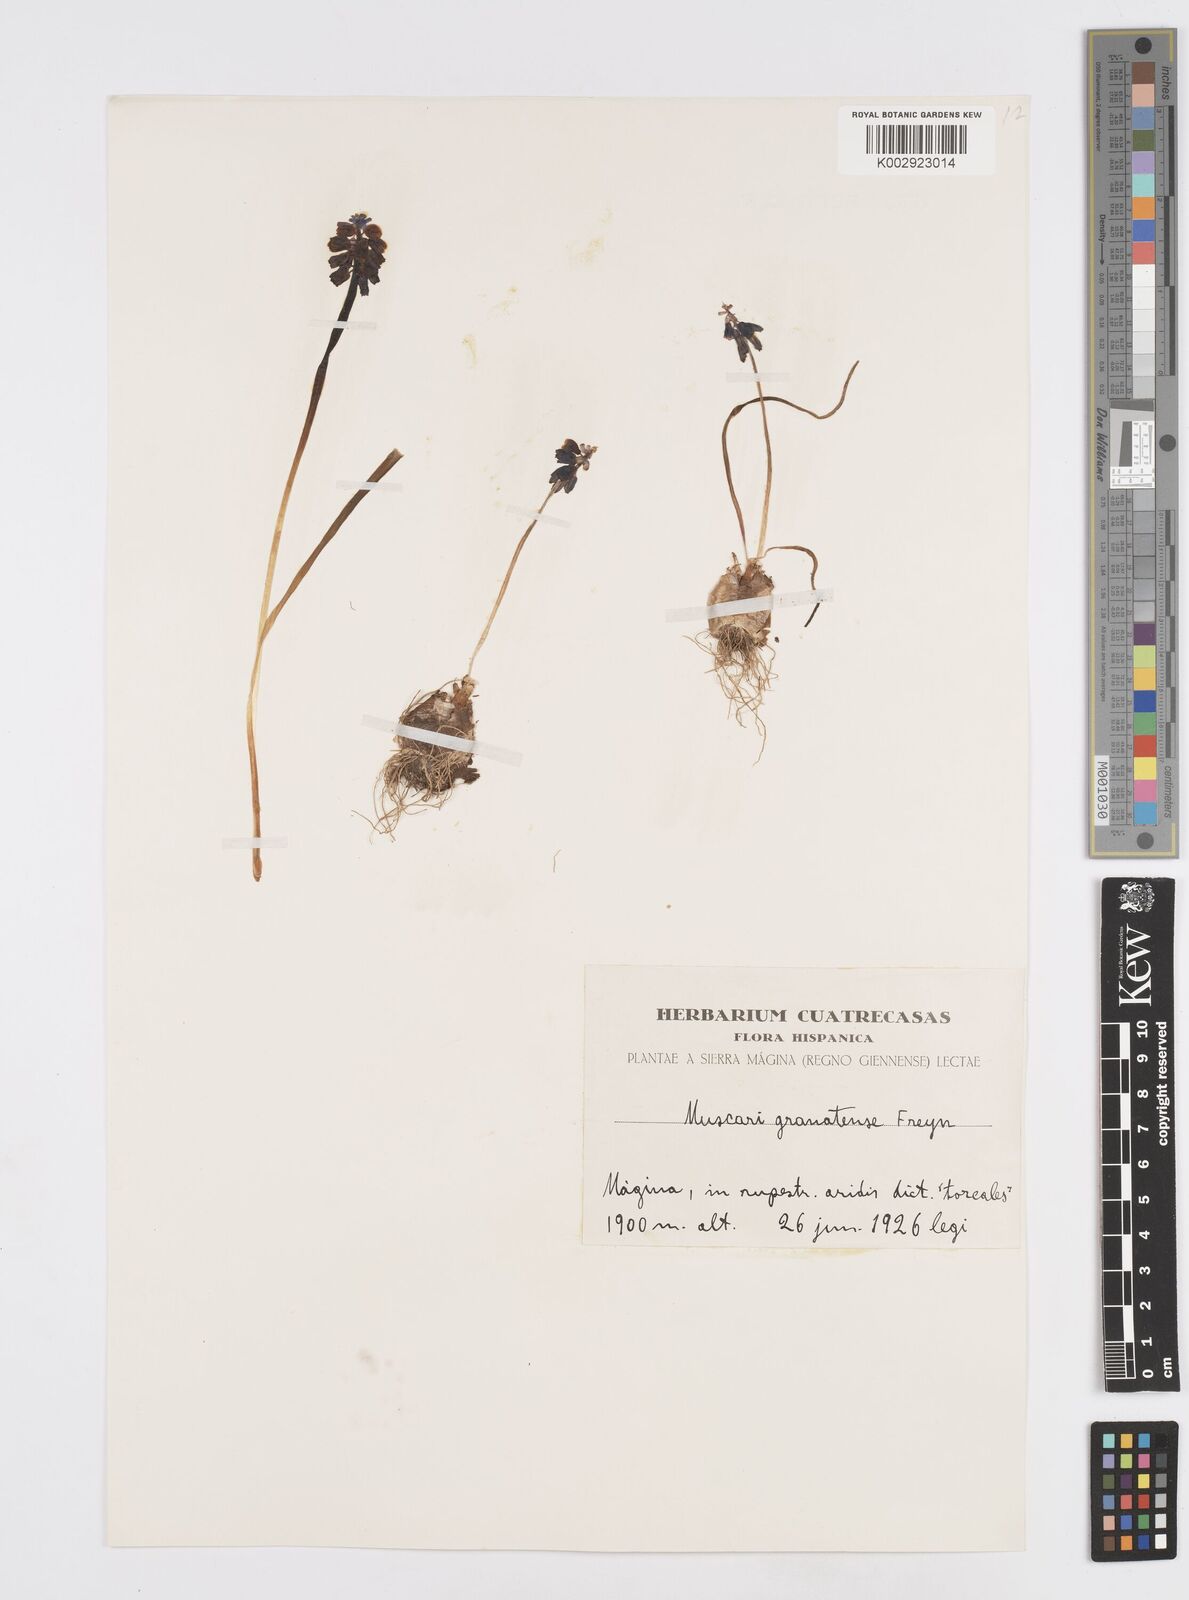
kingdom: Plantae
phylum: Tracheophyta
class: Liliopsida
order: Asparagales
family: Asparagaceae
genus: Muscari
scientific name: Muscari neglectum
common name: Grape-hyacinth
